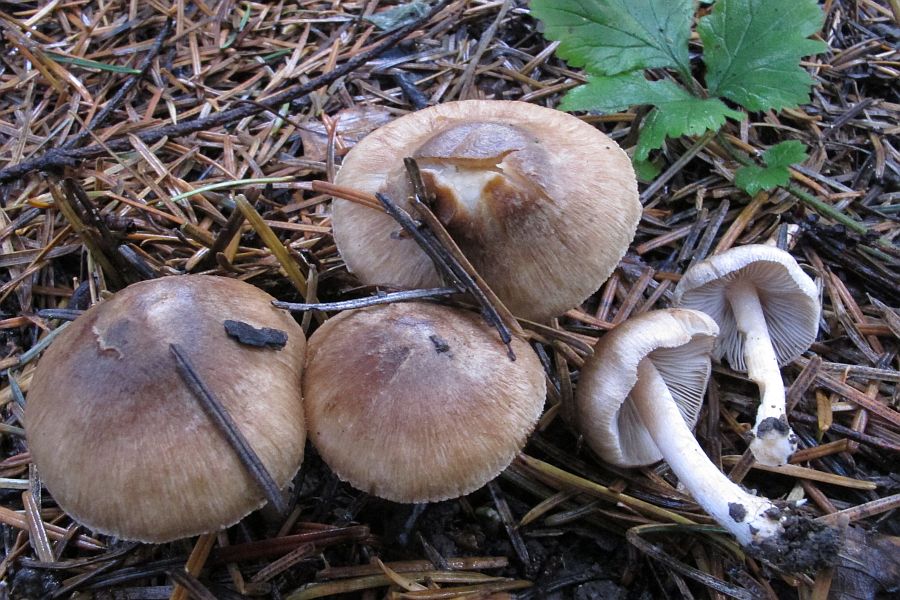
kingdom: Fungi
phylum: Basidiomycota
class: Agaricomycetes
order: Agaricales
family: Inocybaceae
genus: Inocybe
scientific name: Inocybe
